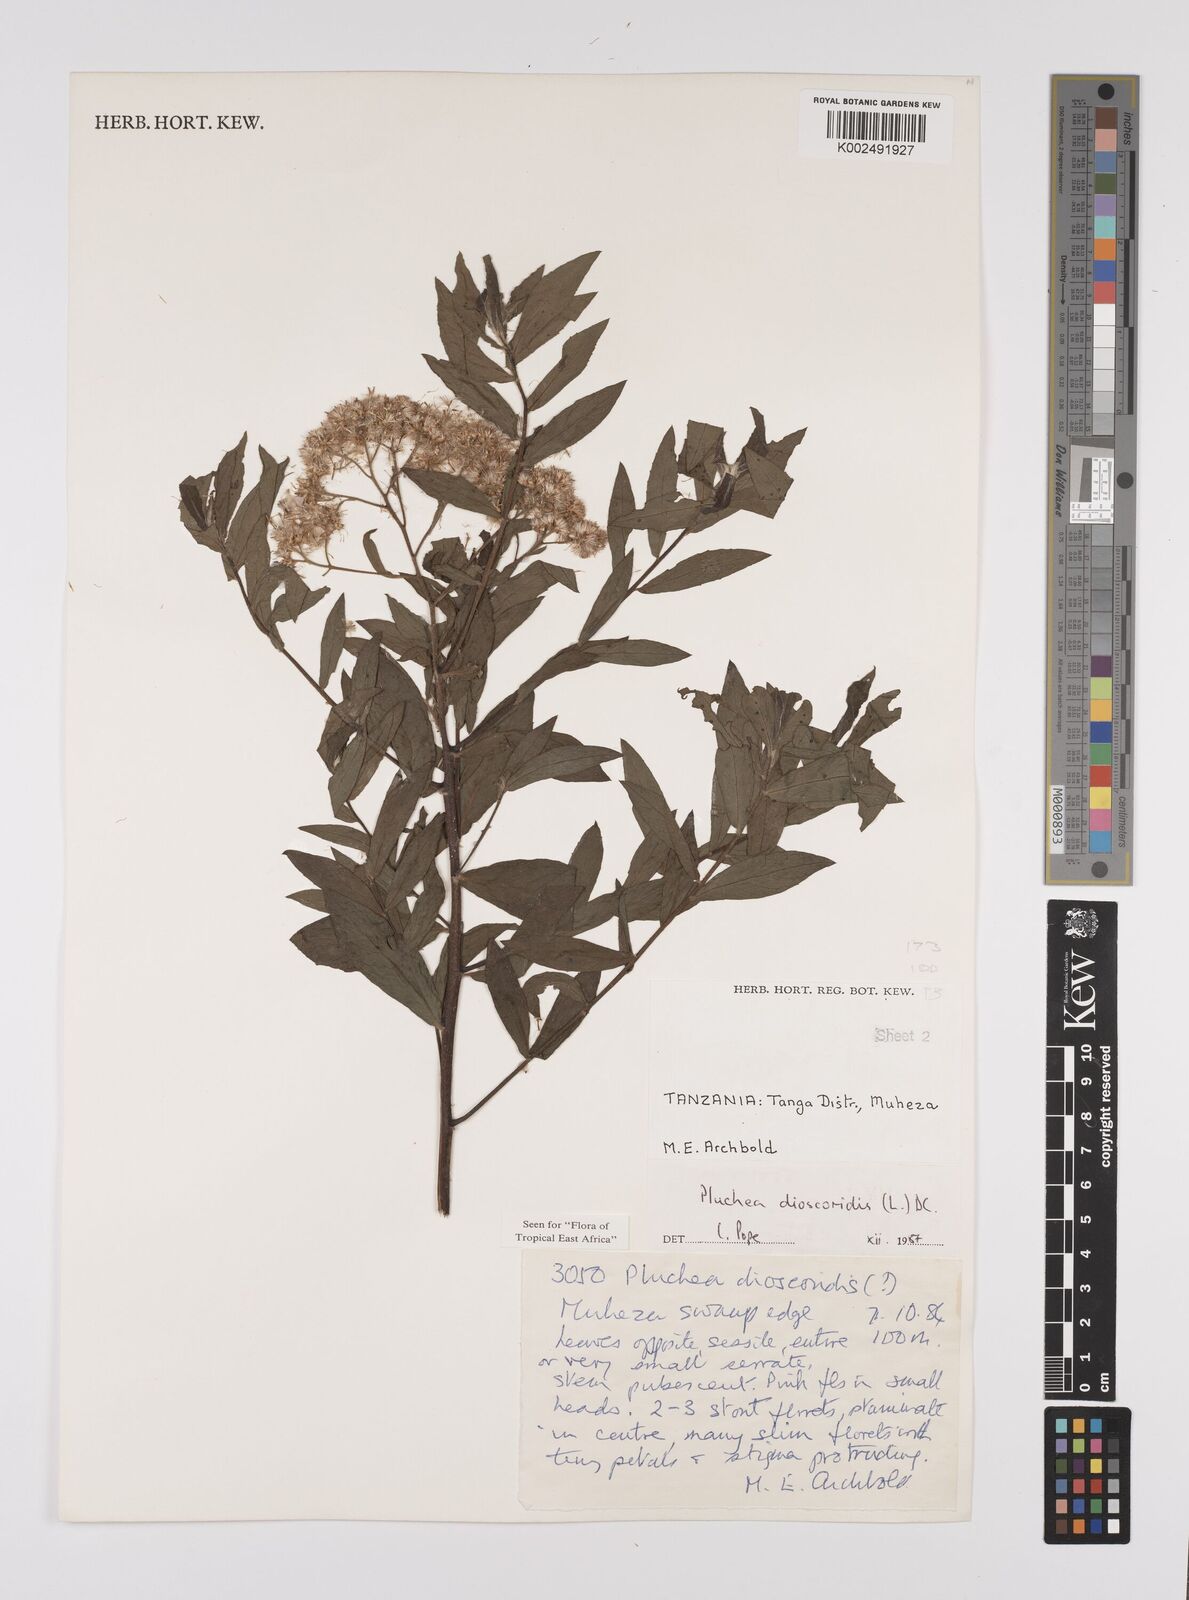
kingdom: Plantae
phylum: Tracheophyta
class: Magnoliopsida
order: Asterales
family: Asteraceae
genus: Pluchea
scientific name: Pluchea dioscoridis
